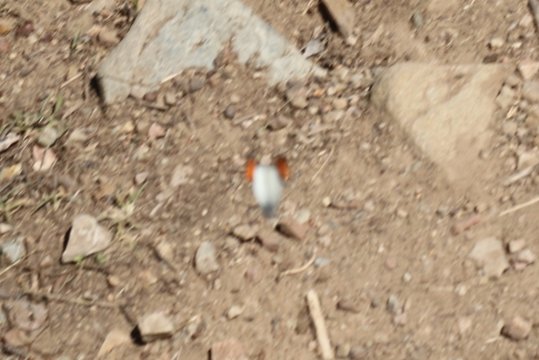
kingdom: Animalia
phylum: Arthropoda
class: Insecta
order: Lepidoptera
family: Pieridae
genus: Anthocharis
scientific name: Anthocharis sara
